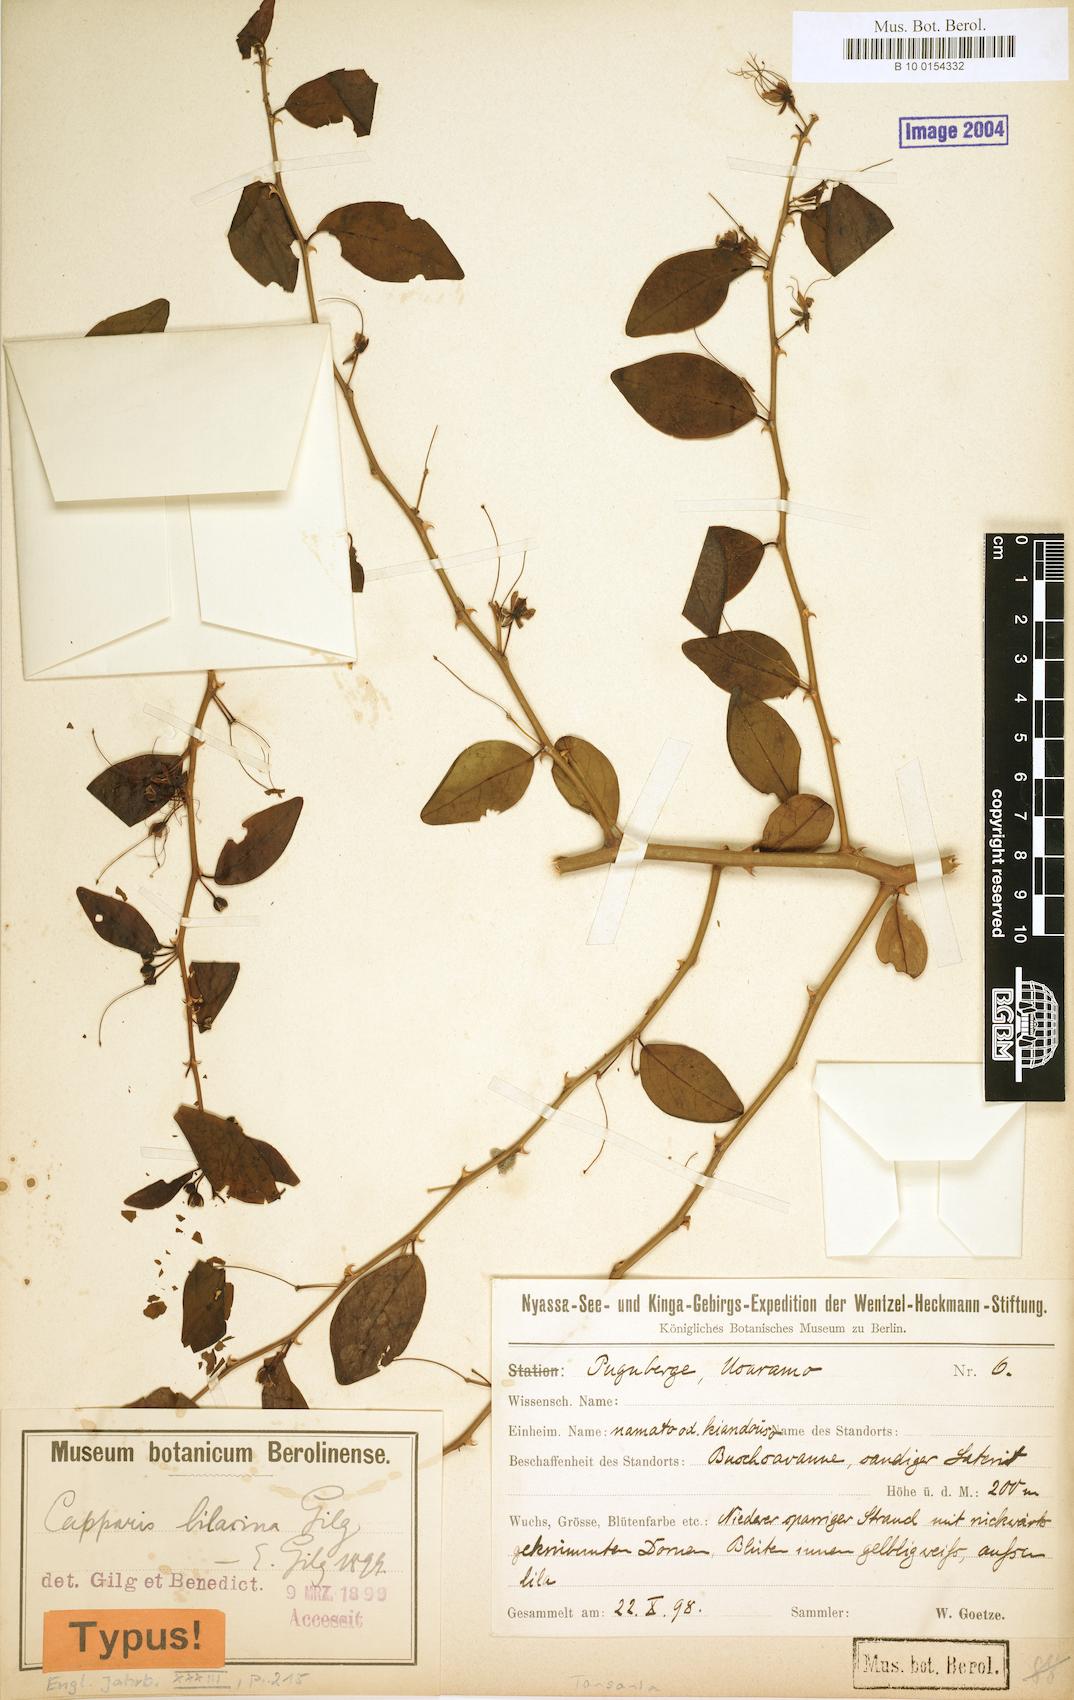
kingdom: Plantae
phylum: Tracheophyta
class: Magnoliopsida
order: Brassicales
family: Capparaceae
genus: Capparis
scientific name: Capparis viminea
